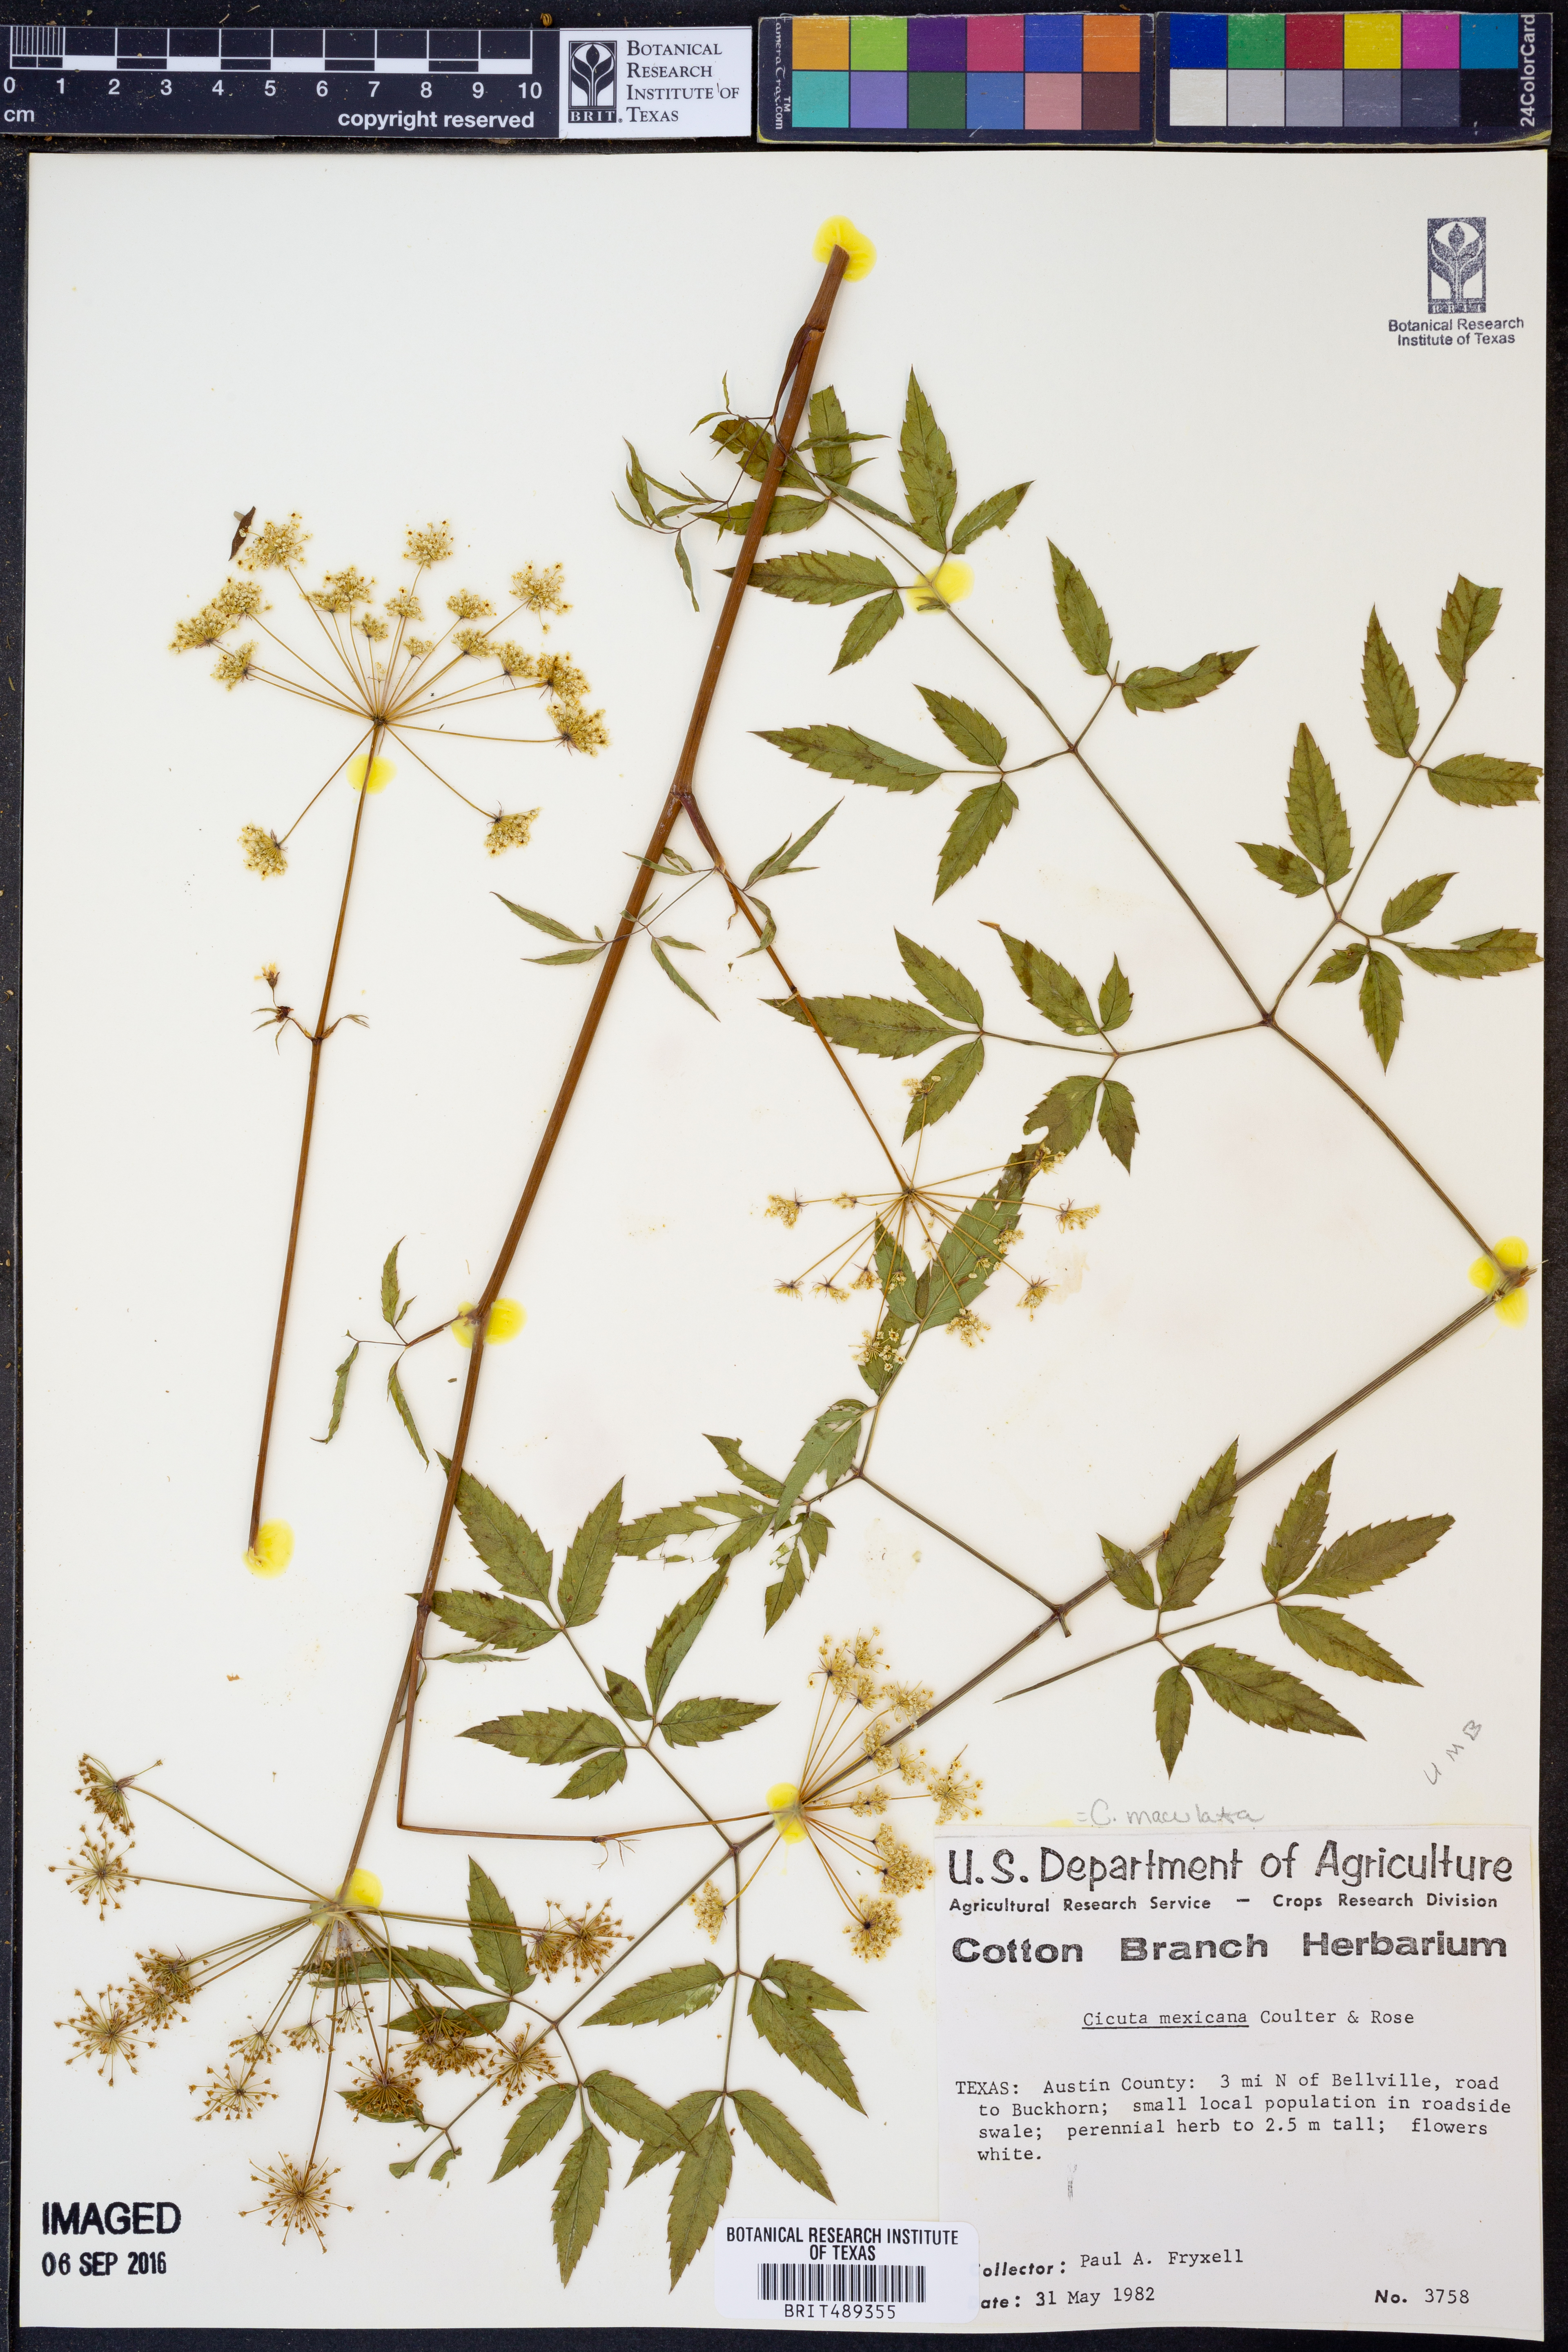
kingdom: Plantae
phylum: Tracheophyta
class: Magnoliopsida
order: Apiales
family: Apiaceae
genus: Cicuta
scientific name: Cicuta maculata
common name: Spotted cowbane
